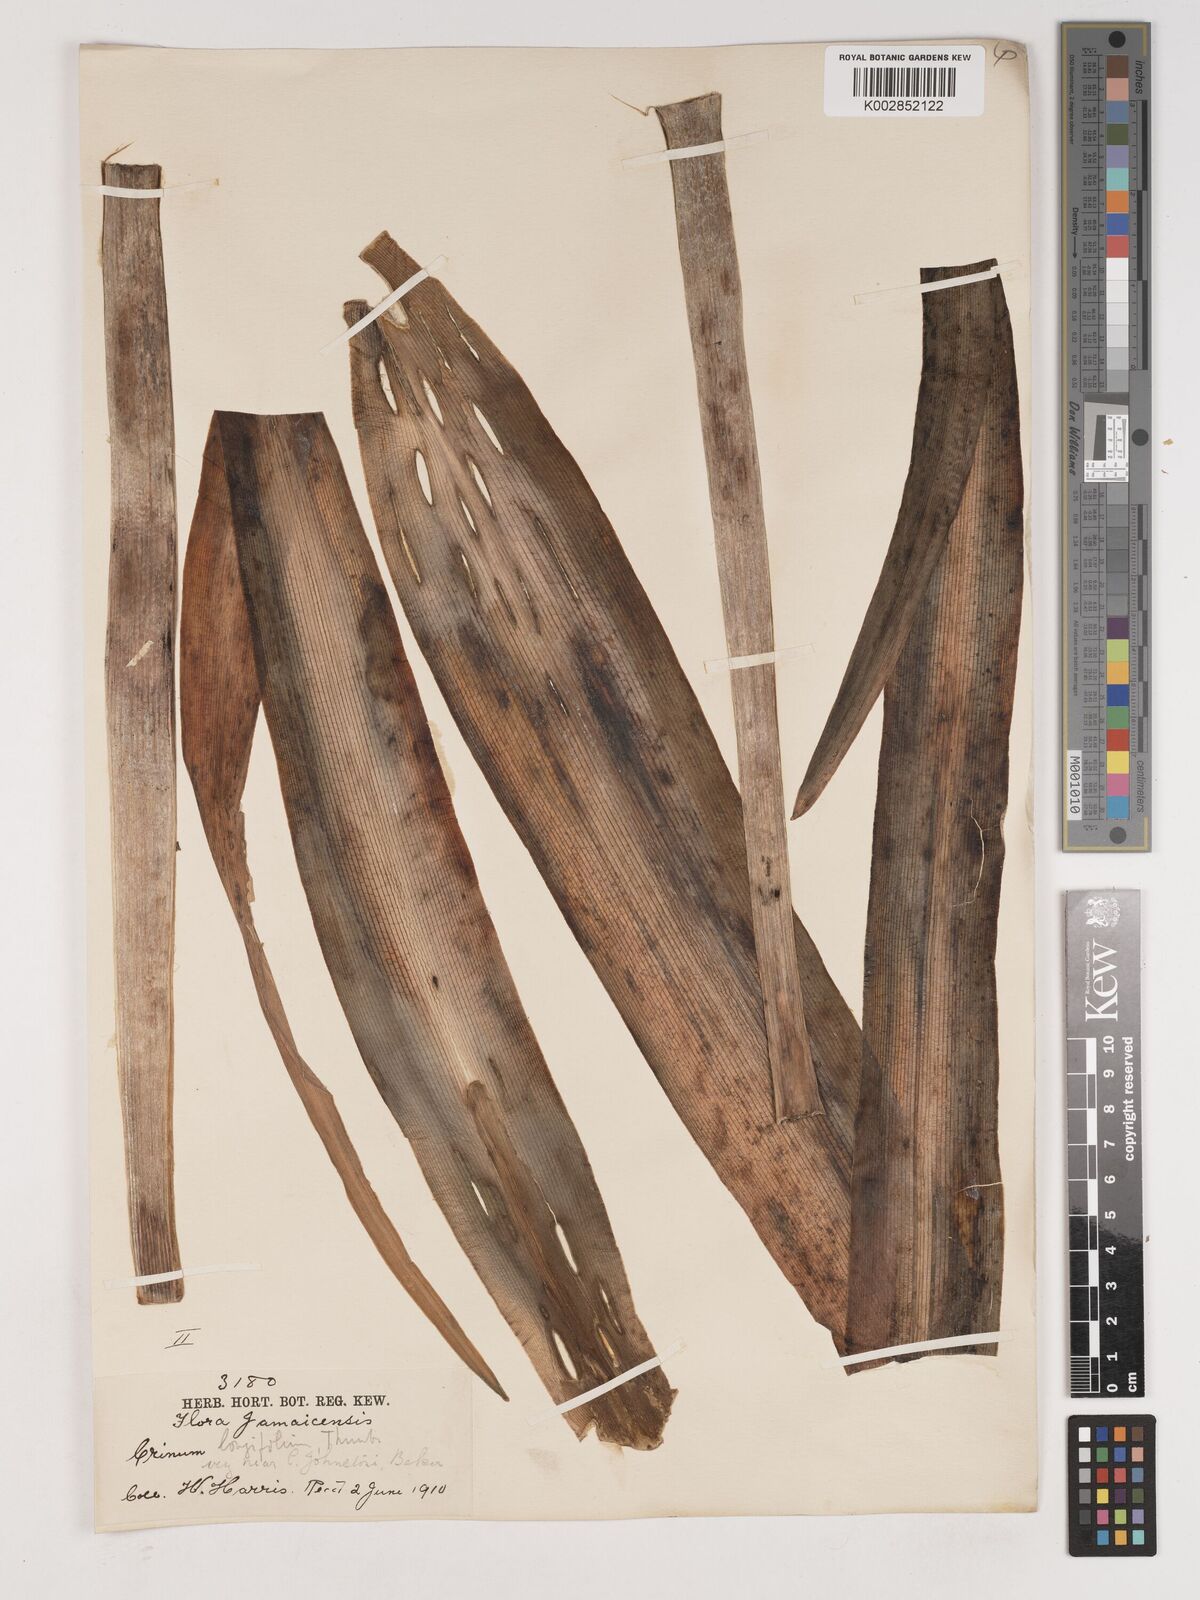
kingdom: Plantae
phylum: Tracheophyta
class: Liliopsida
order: Asparagales
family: Amaryllidaceae
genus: Crinum
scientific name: Crinum latifolium
